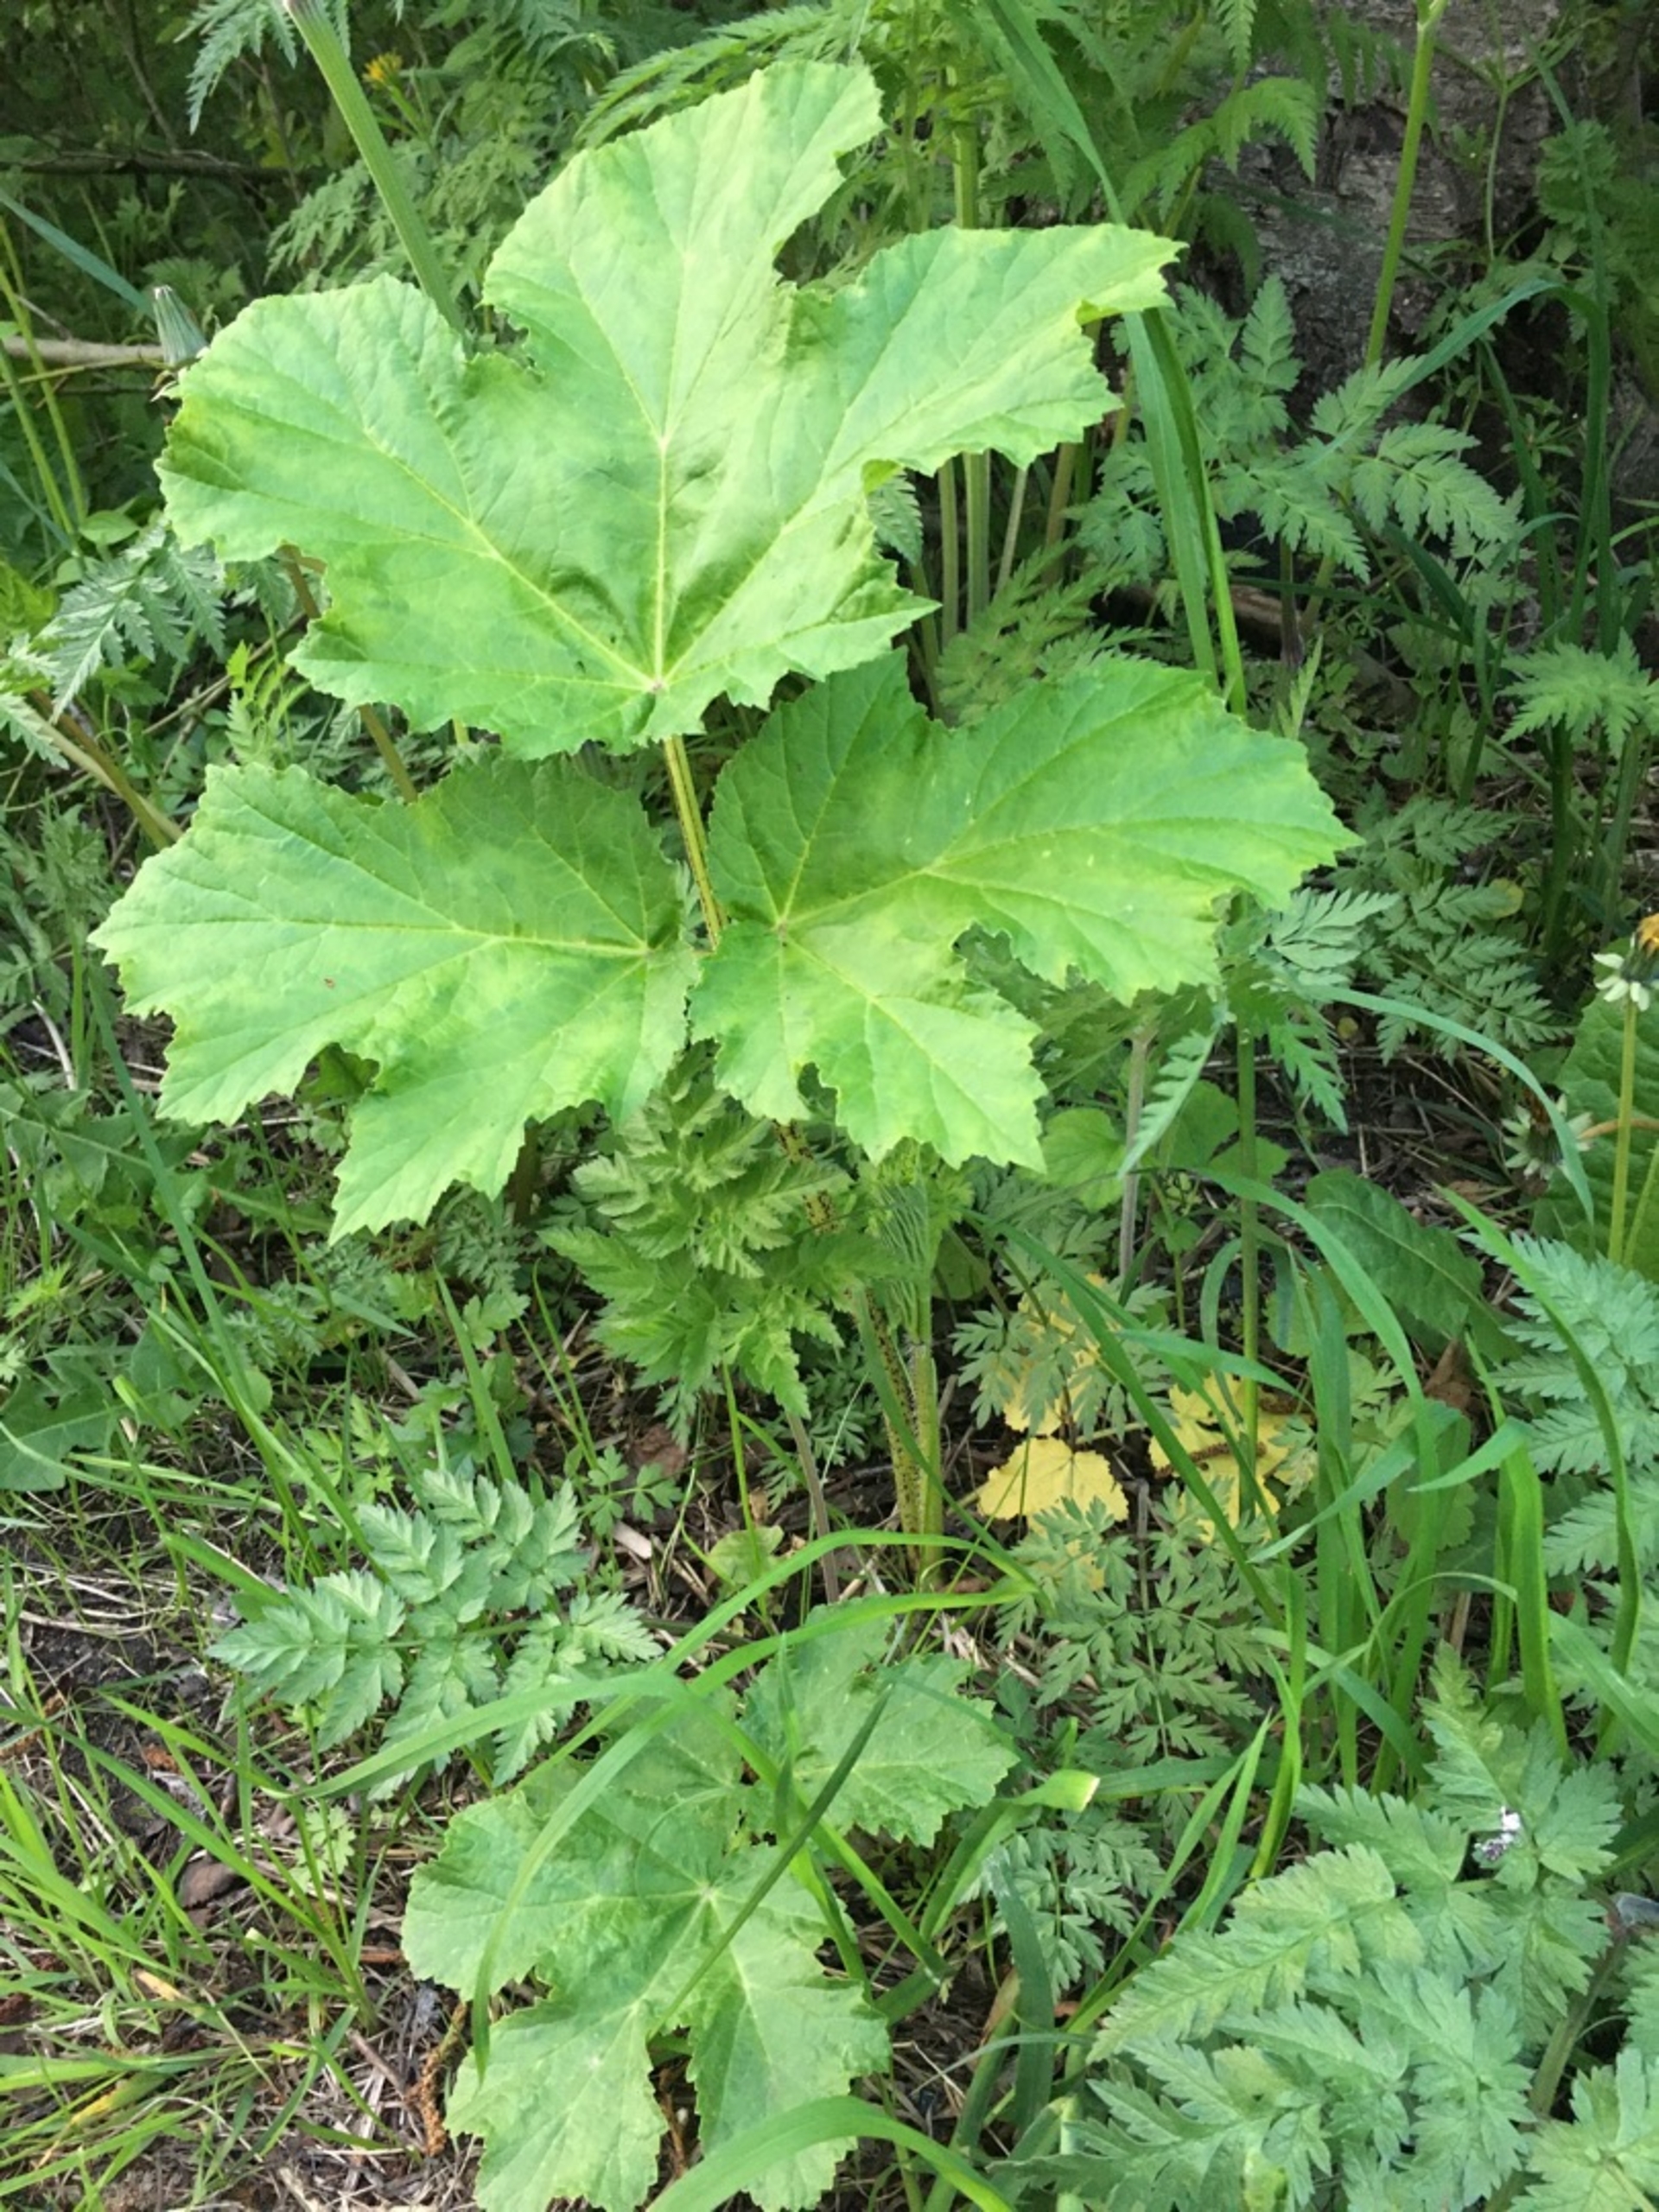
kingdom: Plantae
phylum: Tracheophyta
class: Magnoliopsida
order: Apiales
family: Apiaceae
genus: Heracleum
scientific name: Heracleum mantegazzianum
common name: Kæmpe-bjørneklo
